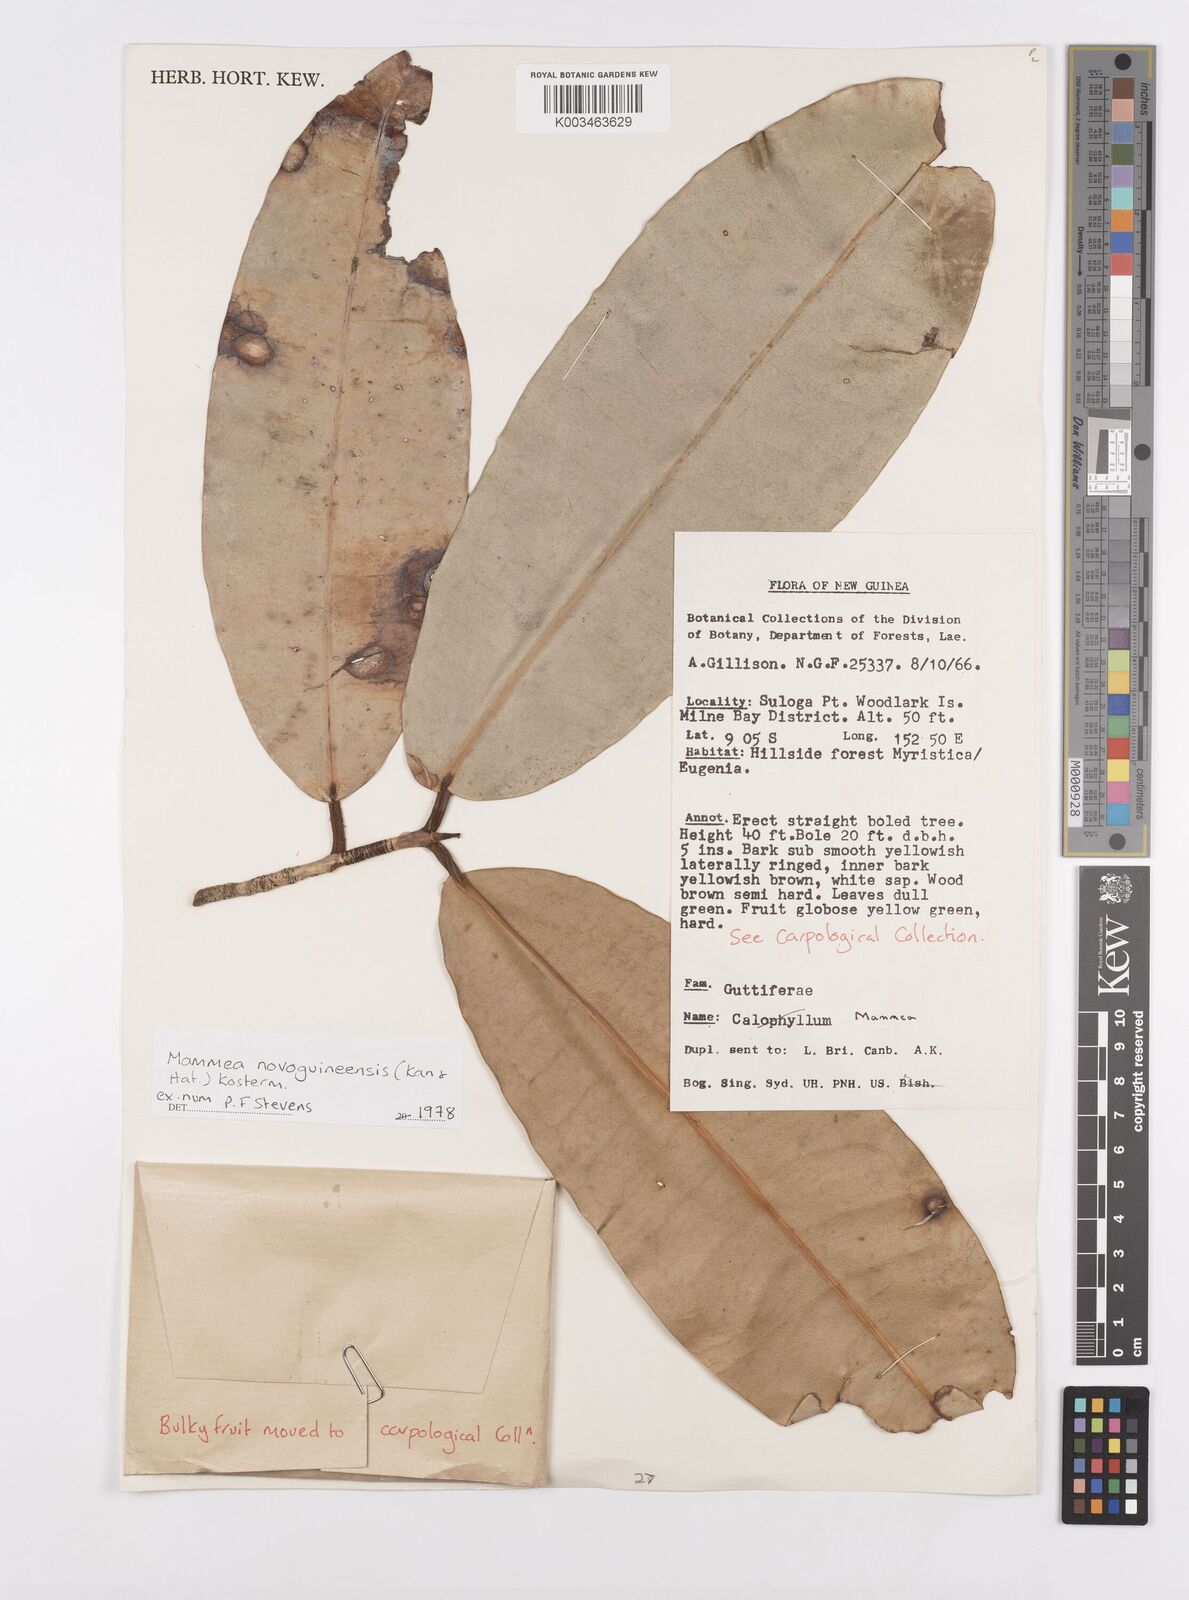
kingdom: Plantae
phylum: Tracheophyta
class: Magnoliopsida
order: Malpighiales
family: Calophyllaceae
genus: Mammea
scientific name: Mammea novoguineensis
